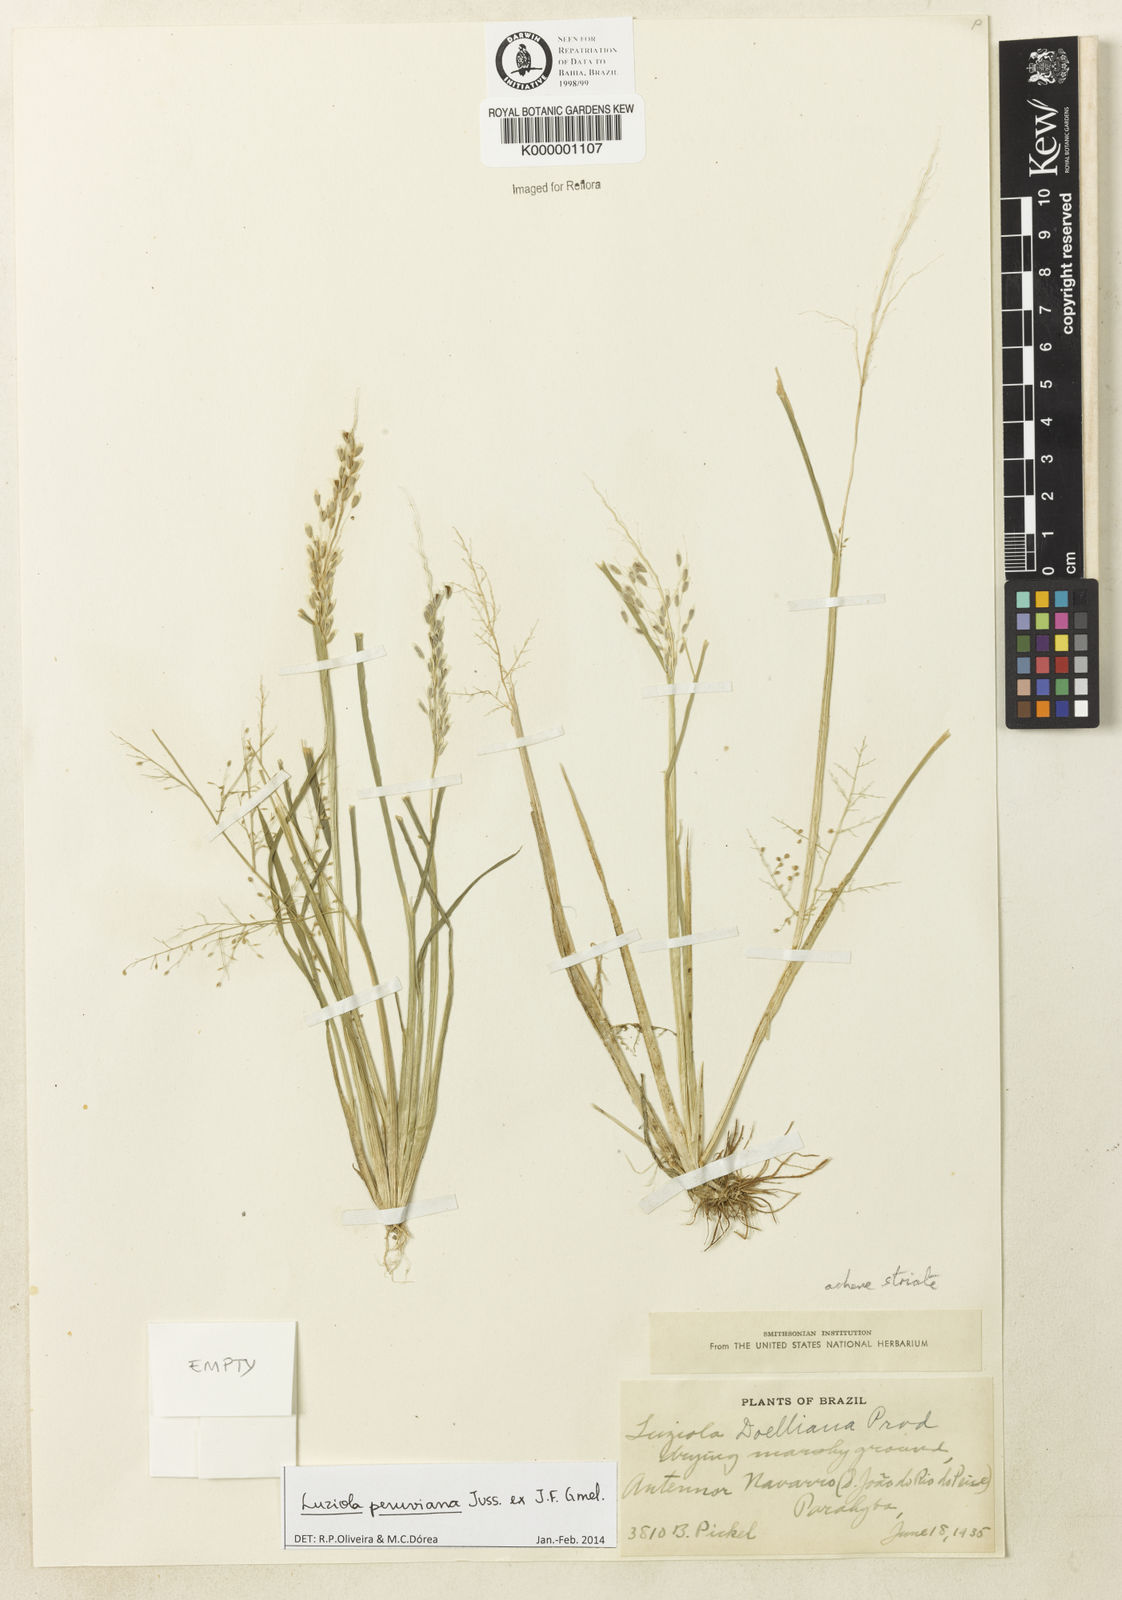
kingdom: Plantae
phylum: Tracheophyta
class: Liliopsida
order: Poales
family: Poaceae
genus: Luziola
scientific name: Luziola brasiliana
